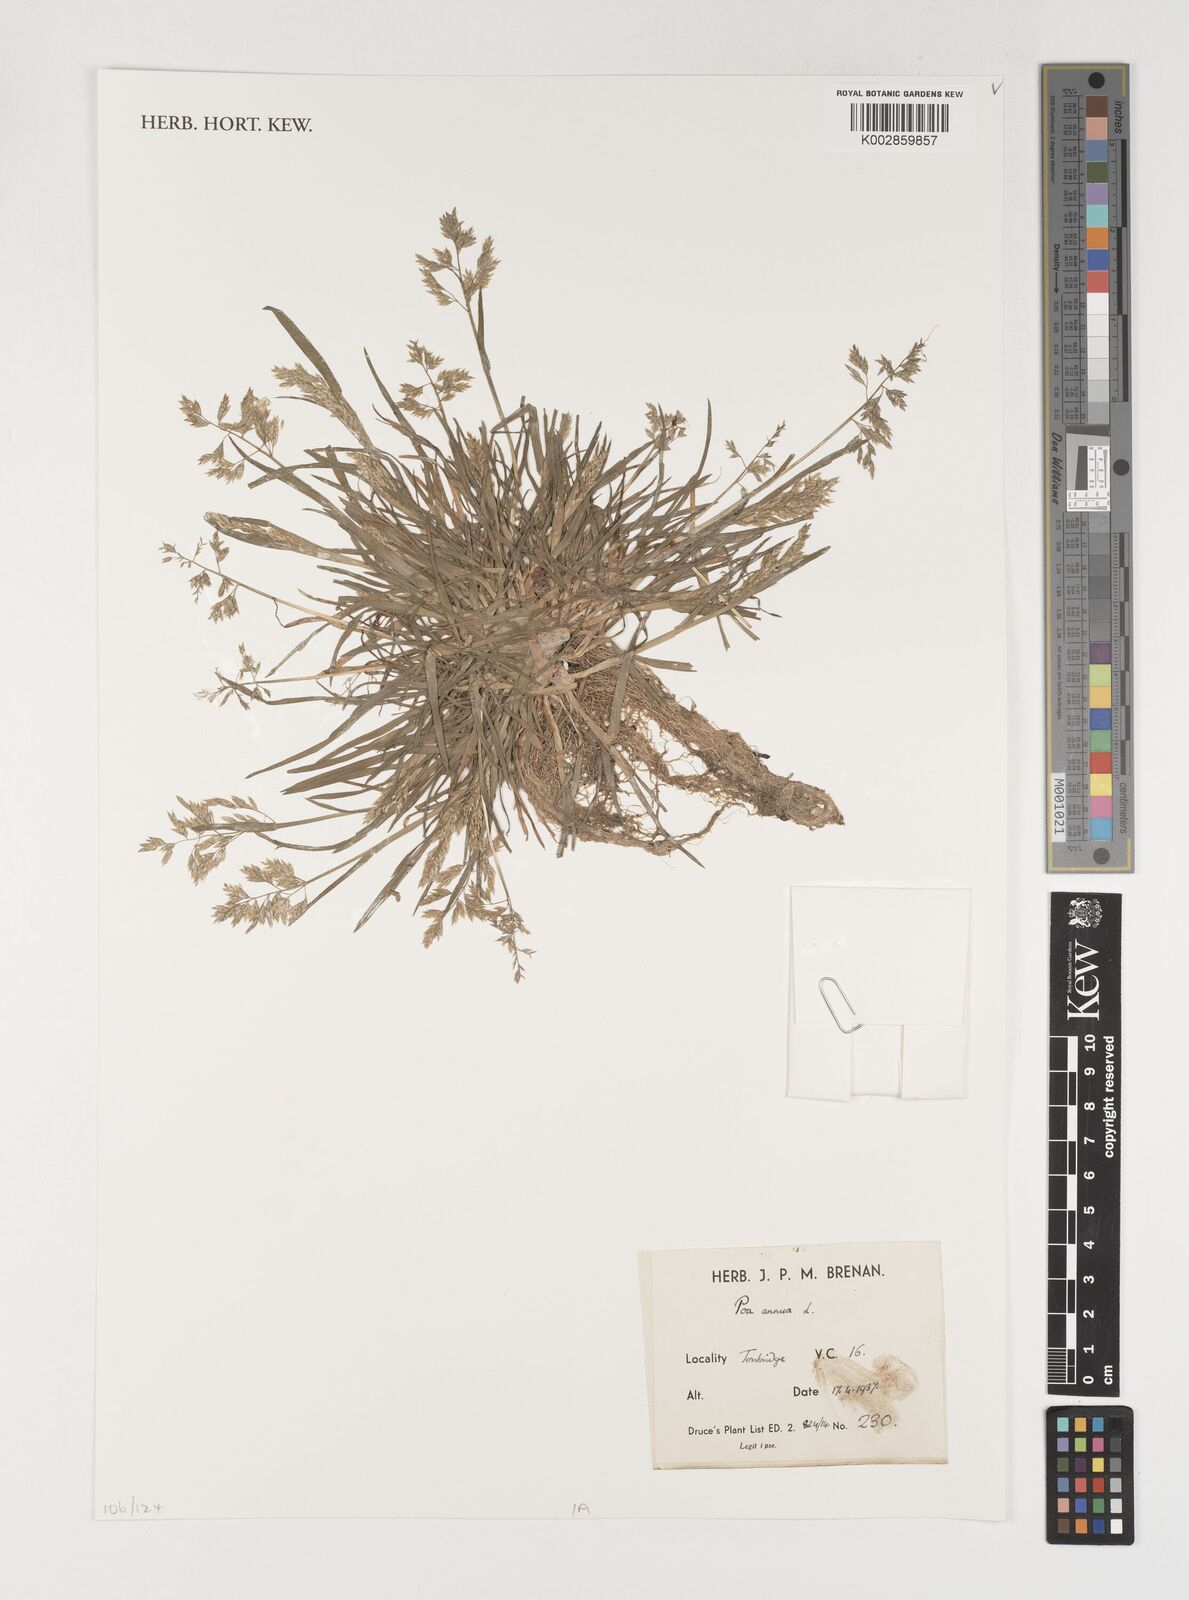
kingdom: Plantae
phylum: Tracheophyta
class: Liliopsida
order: Poales
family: Poaceae
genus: Poa
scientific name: Poa annua
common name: Annual bluegrass
